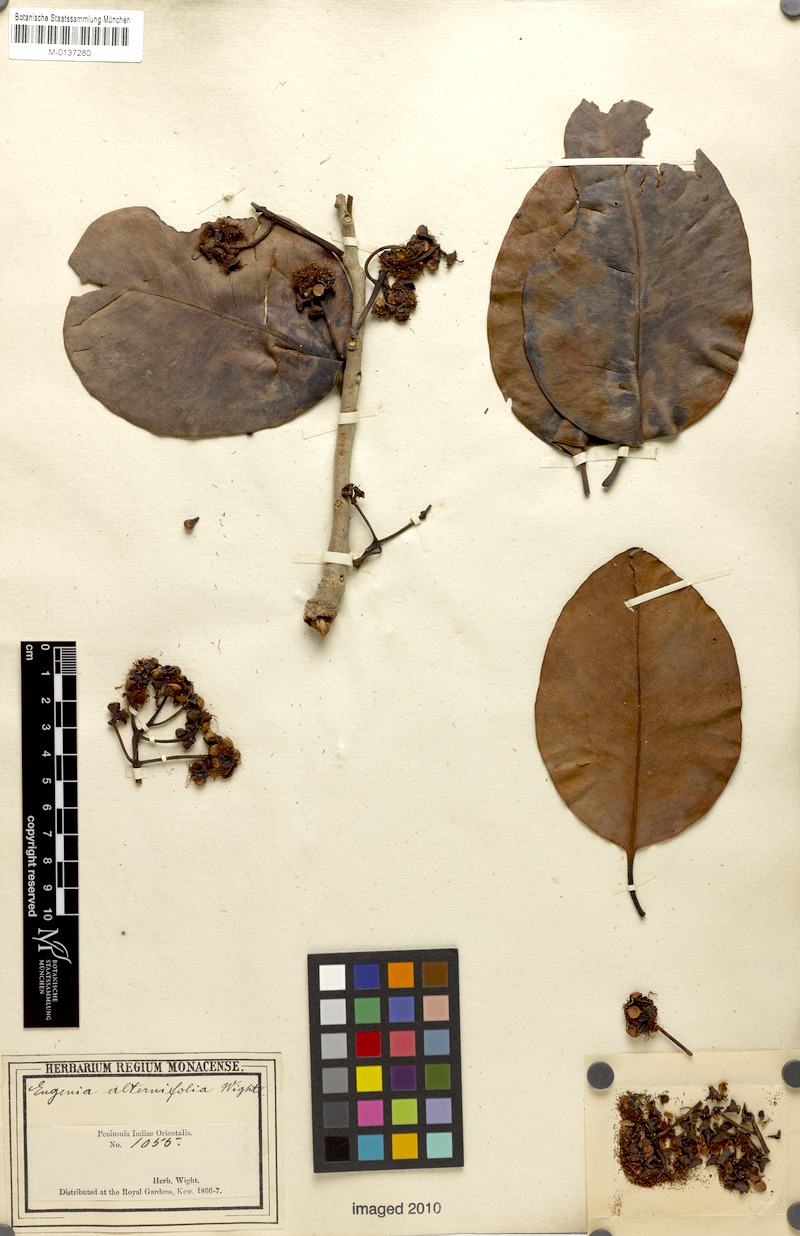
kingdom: Plantae
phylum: Tracheophyta
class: Magnoliopsida
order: Myrtales
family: Myrtaceae
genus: Syzygium
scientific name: Syzygium alternifolium
